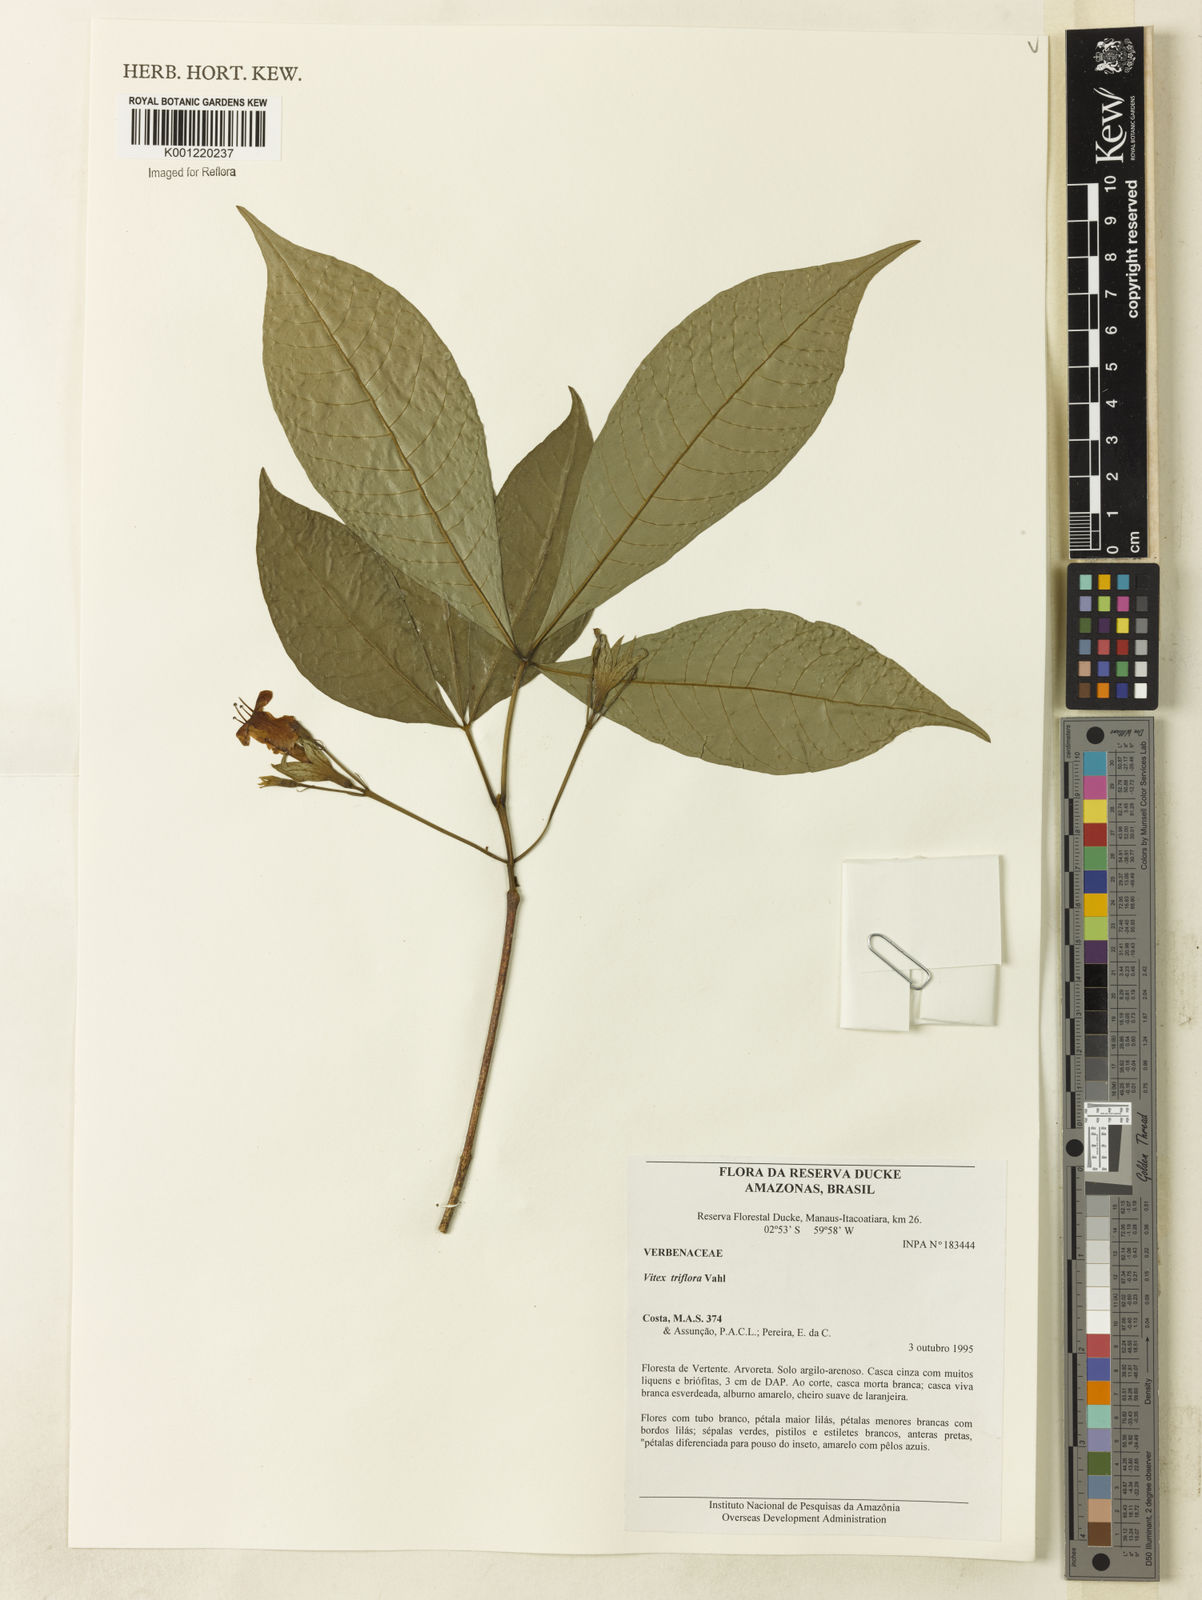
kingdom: Plantae
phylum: Tracheophyta
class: Magnoliopsida
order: Lamiales
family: Lamiaceae
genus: Vitex
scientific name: Vitex triflora
